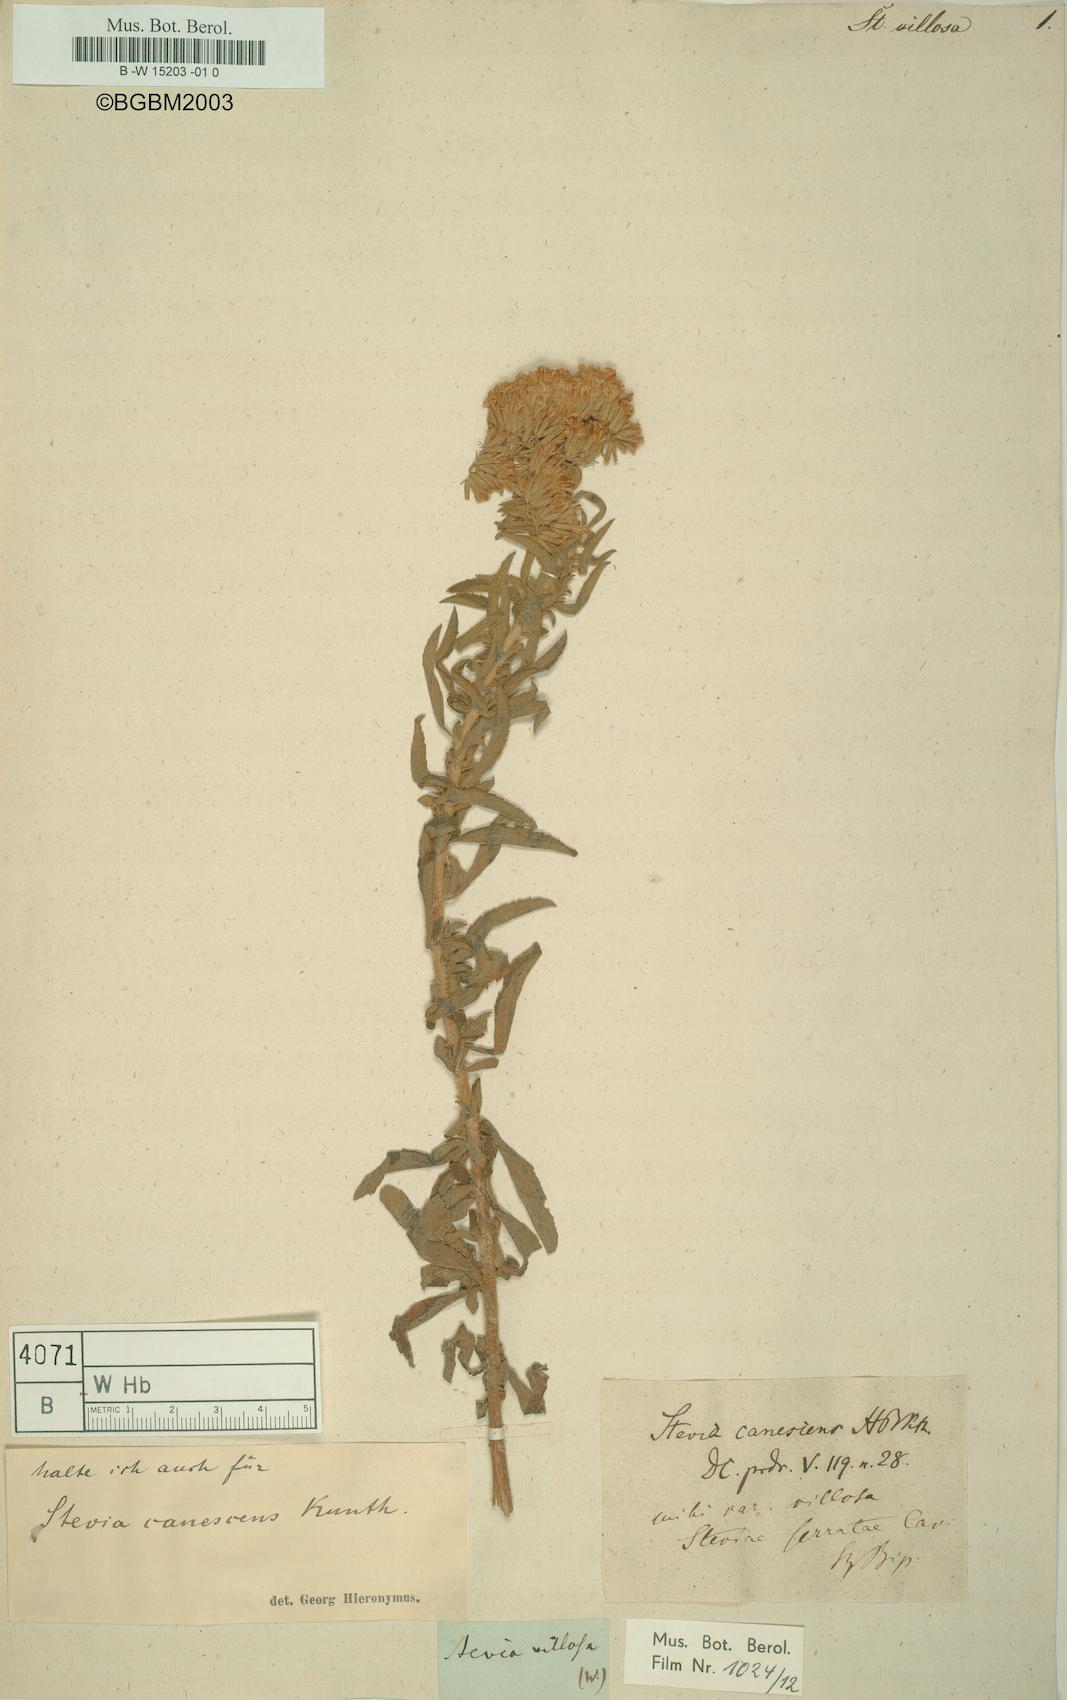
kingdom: Plantae
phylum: Tracheophyta
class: Magnoliopsida
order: Asterales
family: Asteraceae
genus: Stevia
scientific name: Stevia viscida
